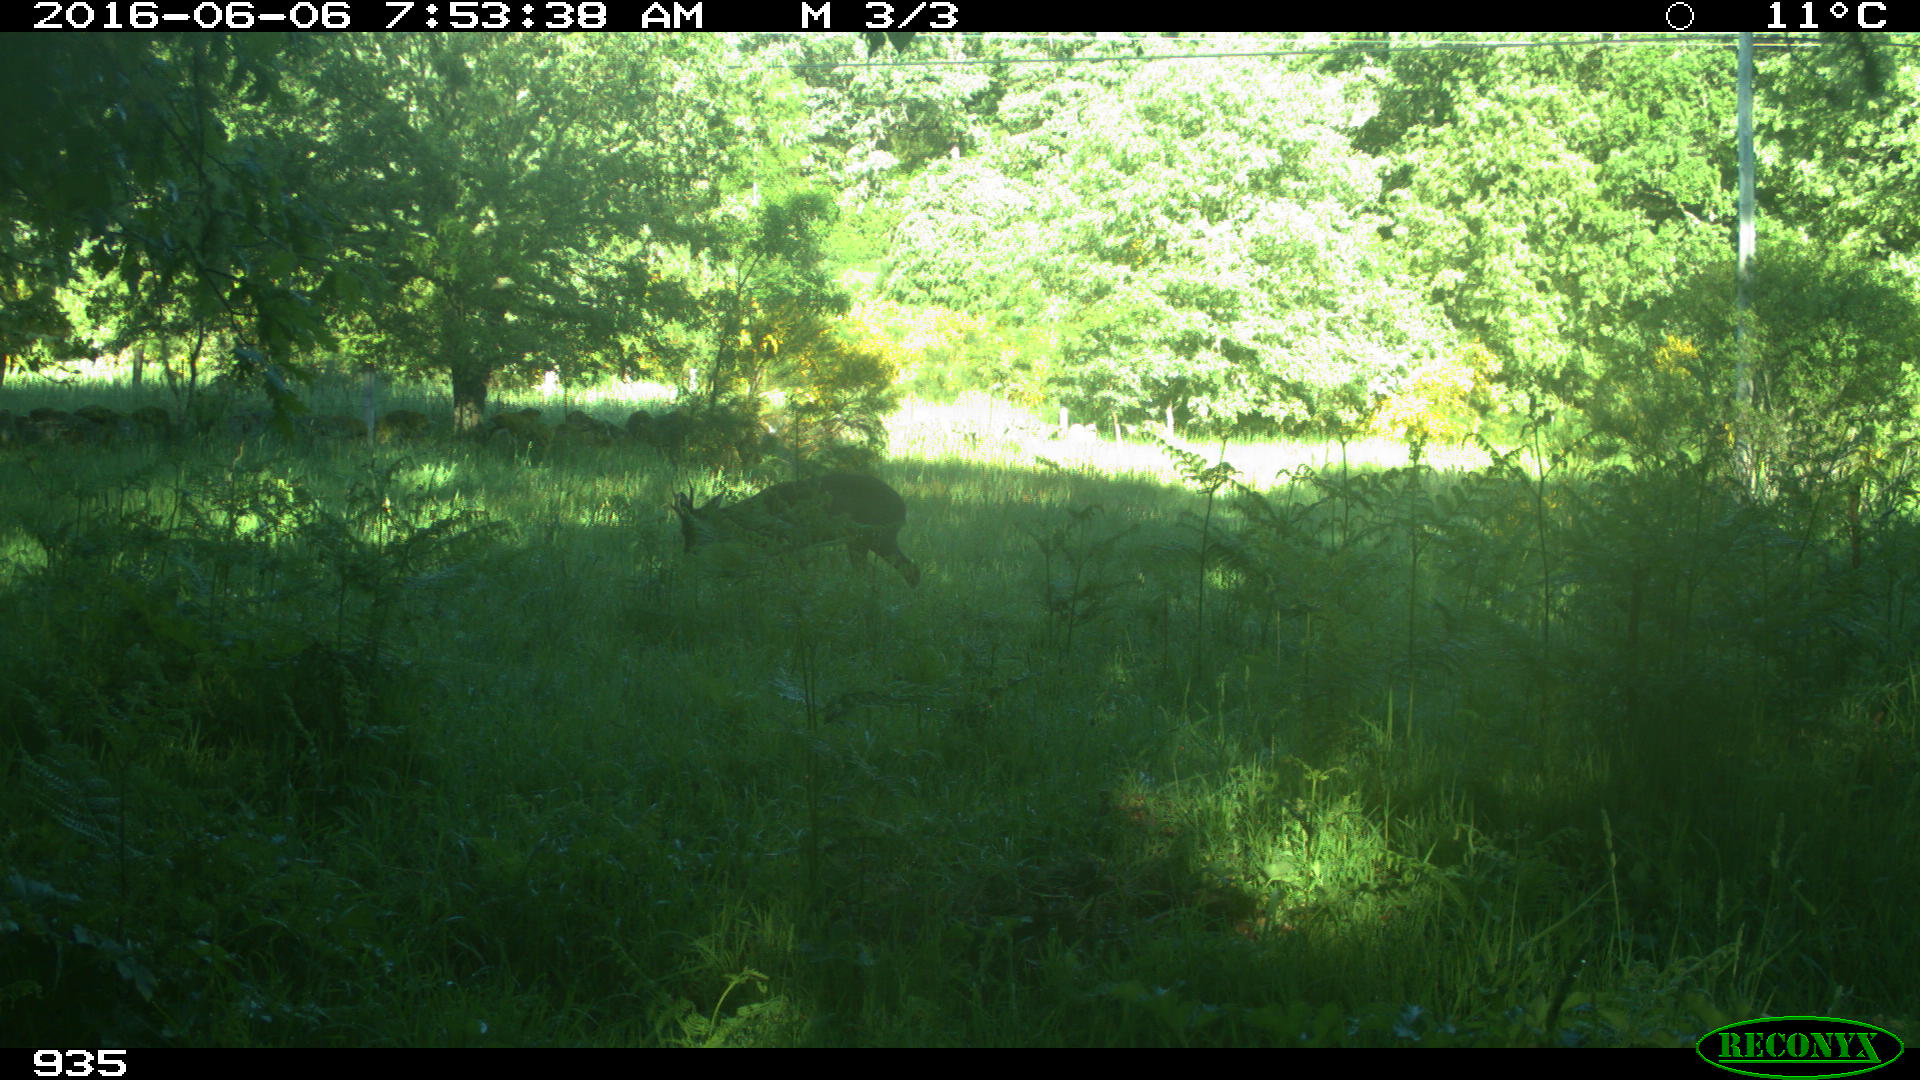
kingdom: Animalia
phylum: Chordata
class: Mammalia
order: Artiodactyla
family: Cervidae
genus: Capreolus
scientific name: Capreolus capreolus
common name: Western roe deer
